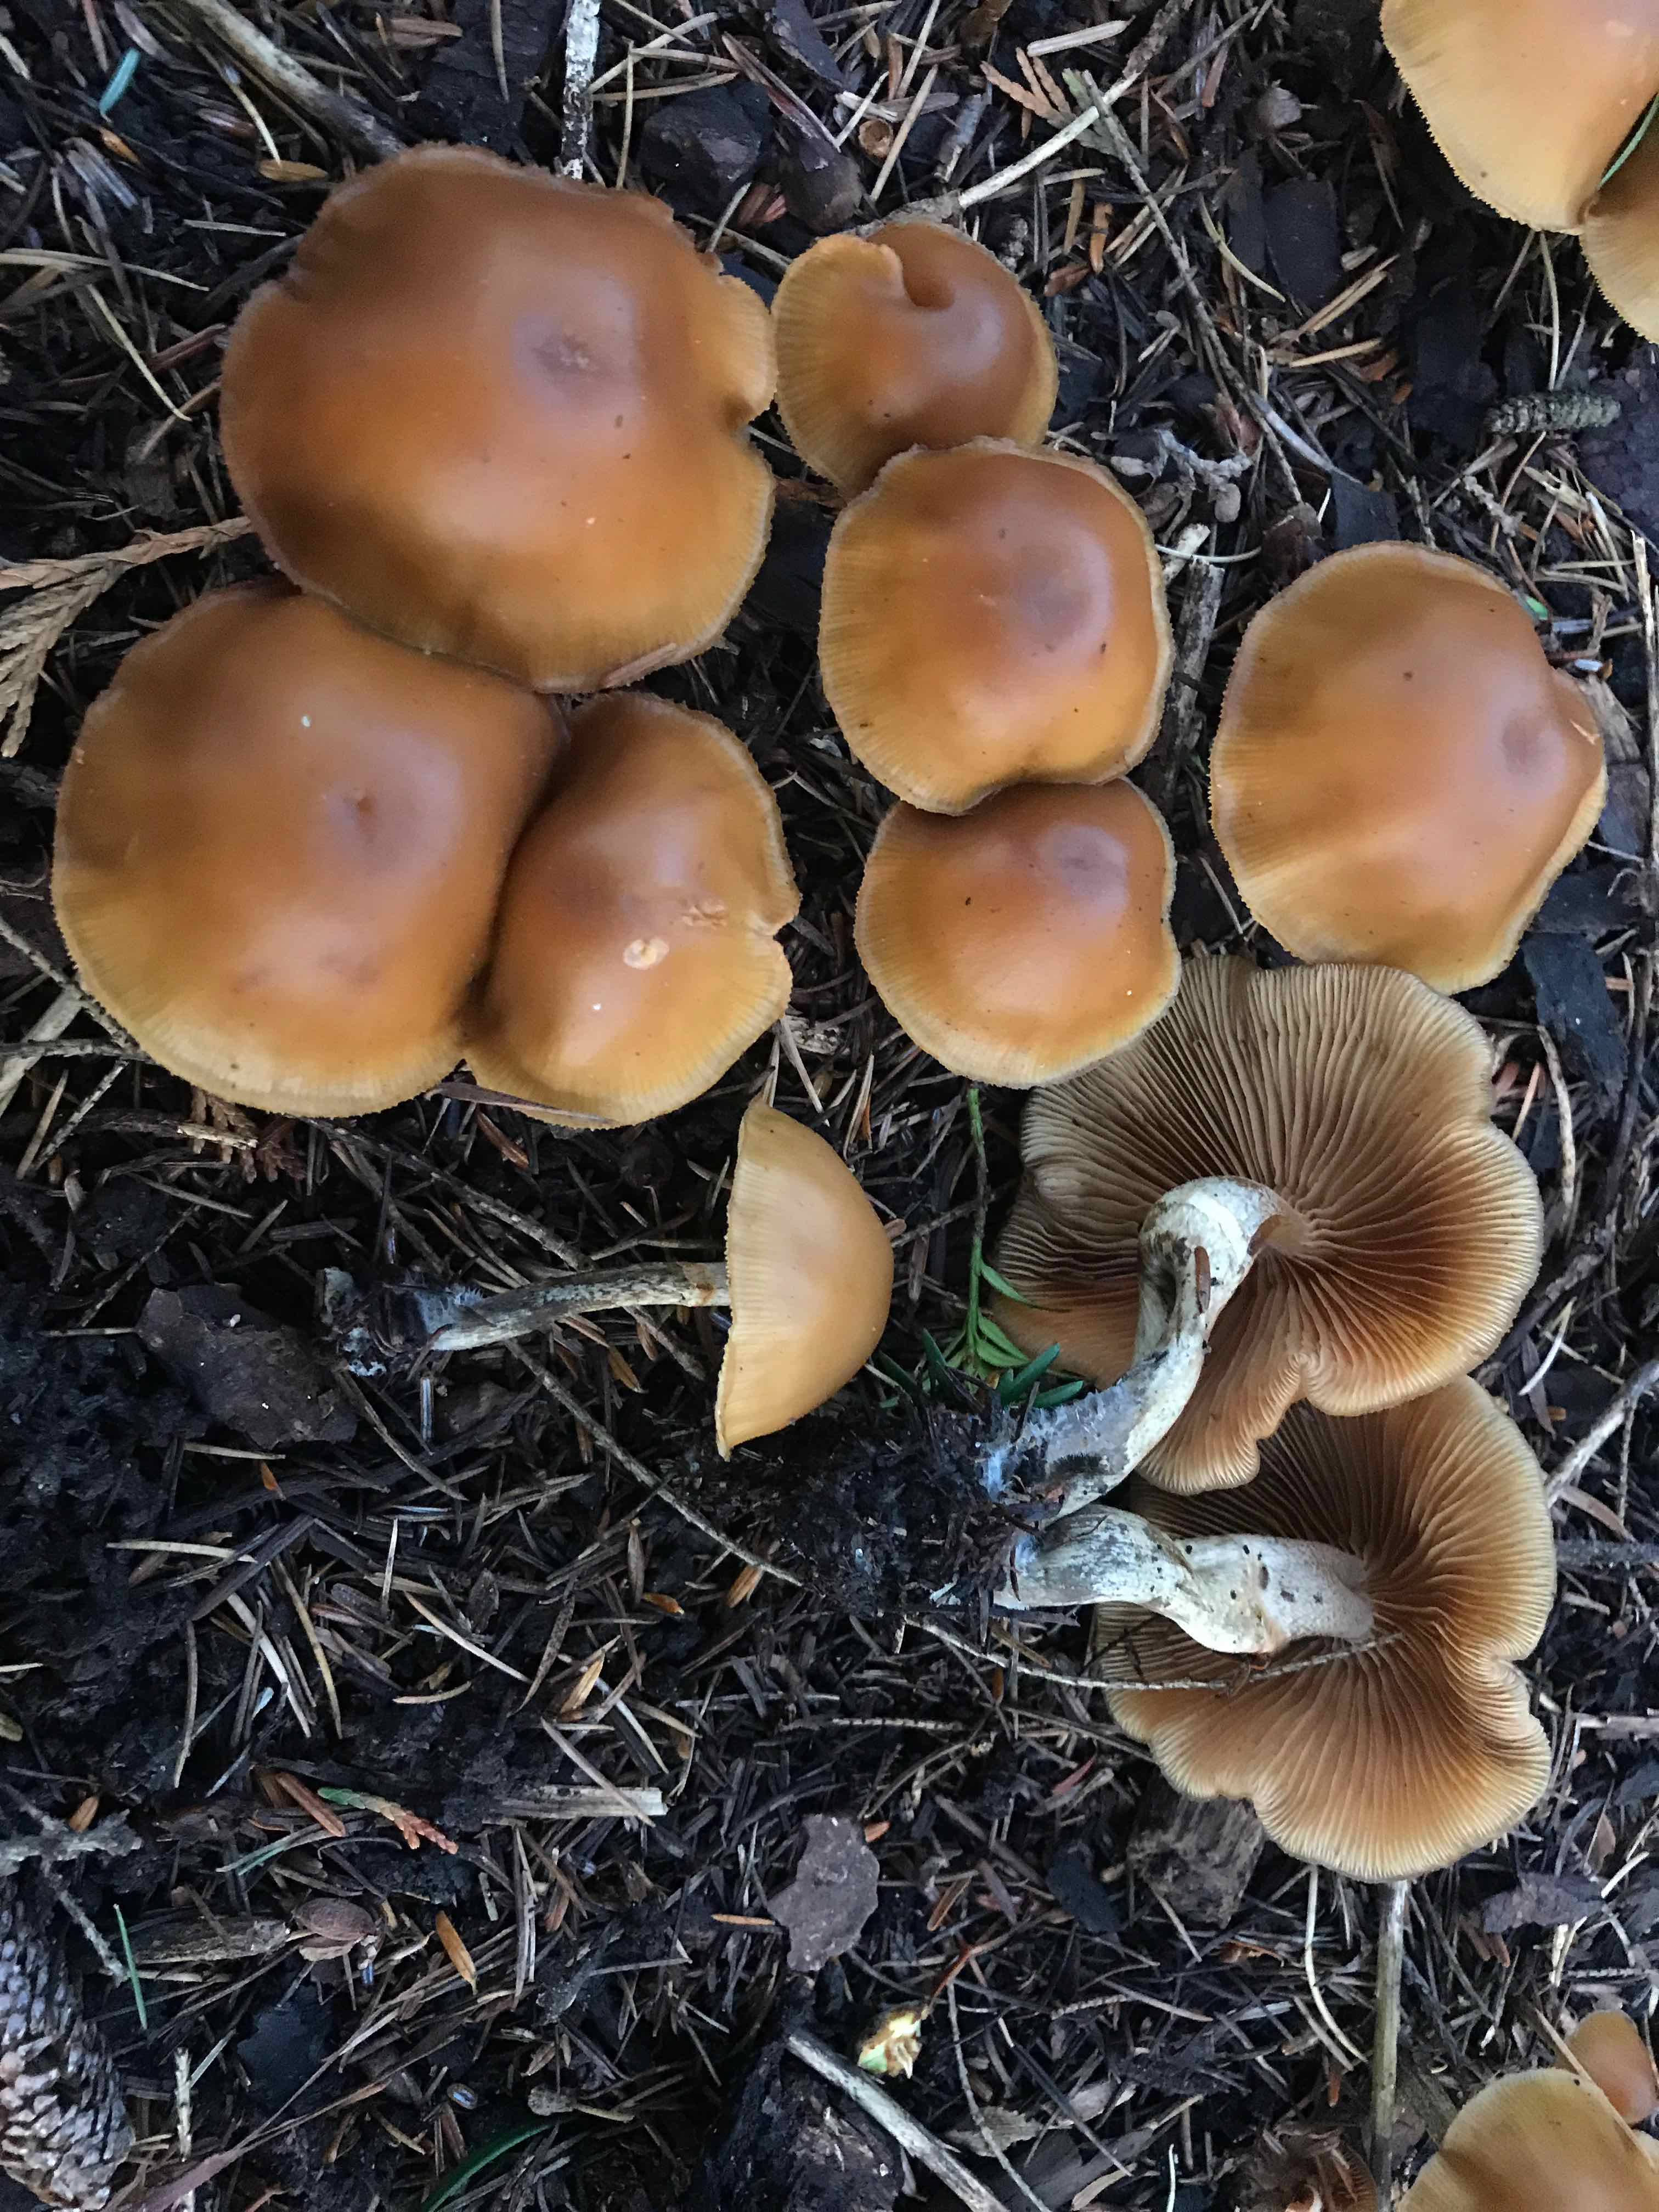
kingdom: Fungi
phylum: Basidiomycota
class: Agaricomycetes
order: Agaricales
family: Hymenogastraceae
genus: Galerina
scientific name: Galerina marginata
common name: randbæltet hjelmhat
